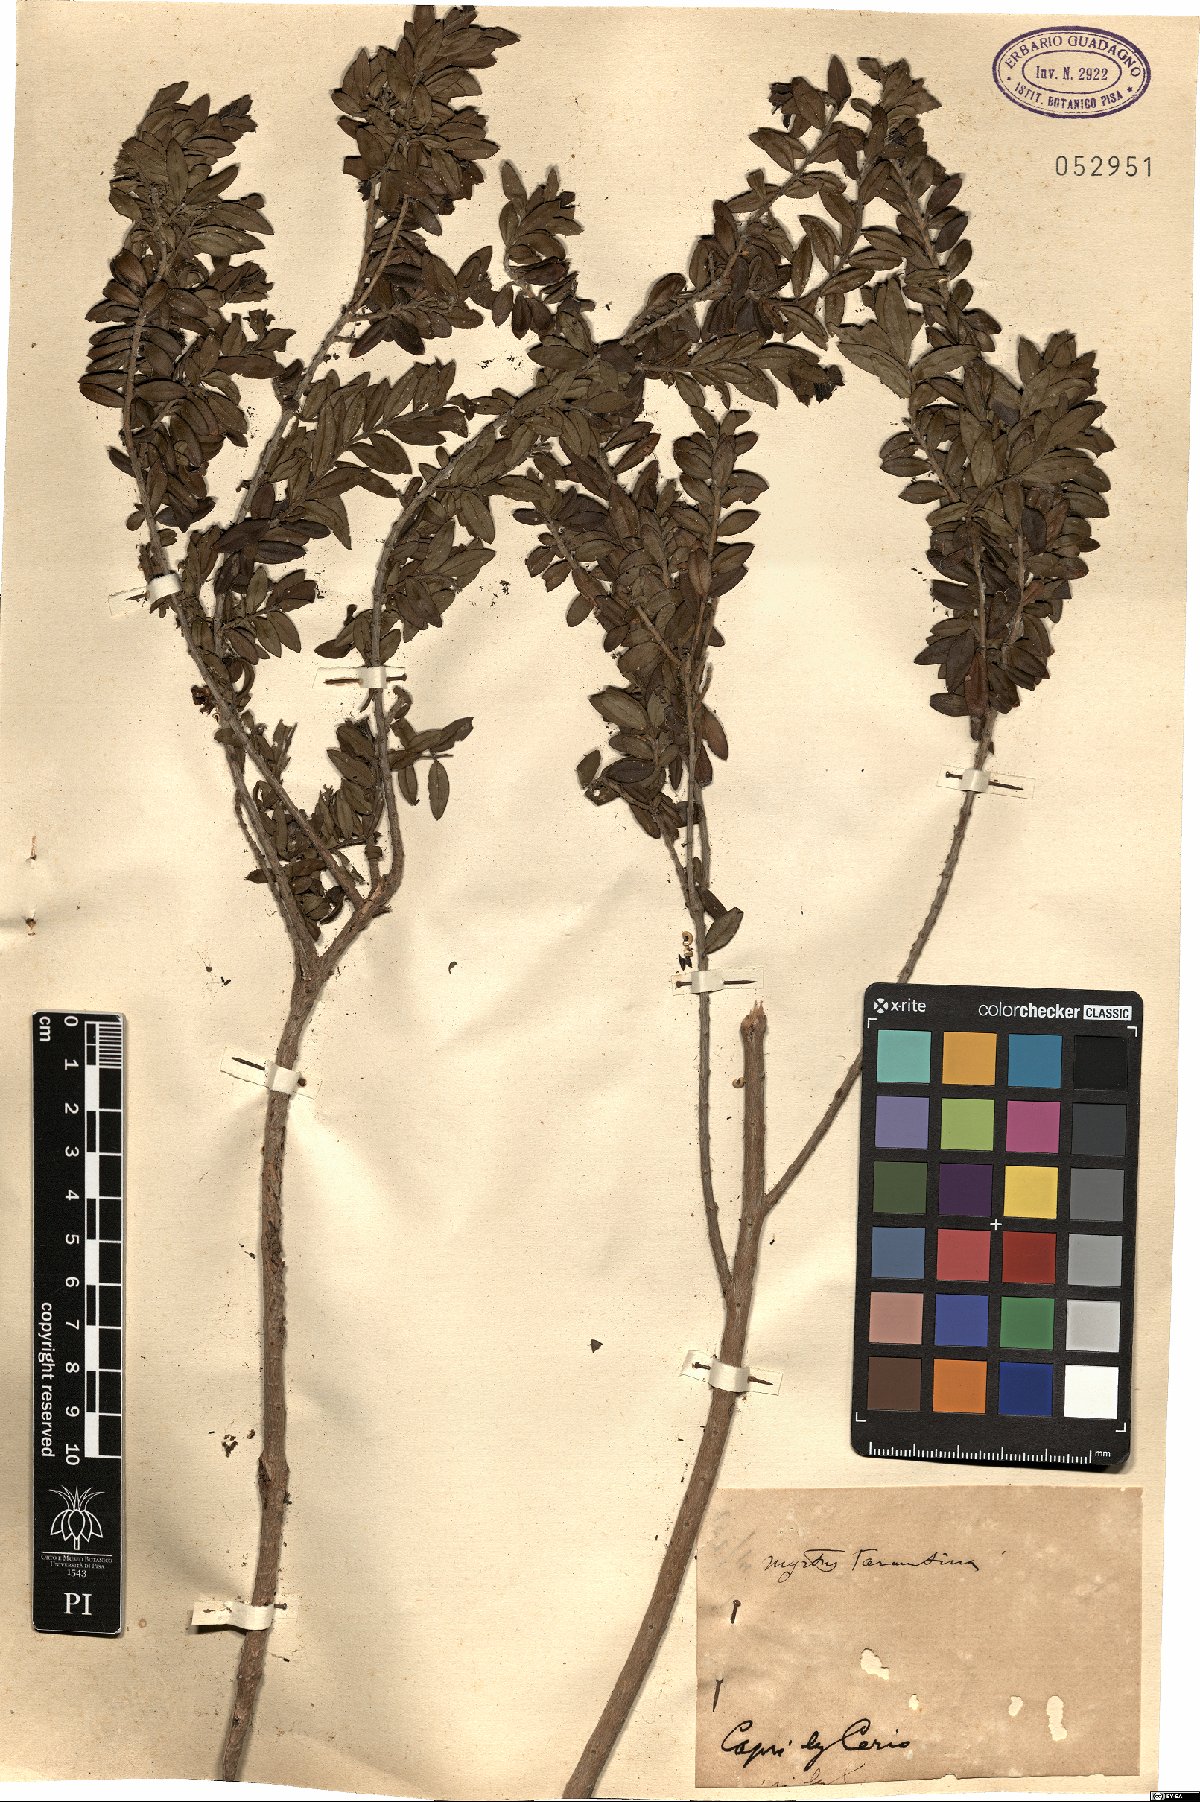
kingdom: Plantae
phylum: Tracheophyta
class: Magnoliopsida
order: Myrtales
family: Myrtaceae
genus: Myrtus
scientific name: Myrtus communis
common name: Myrtle
